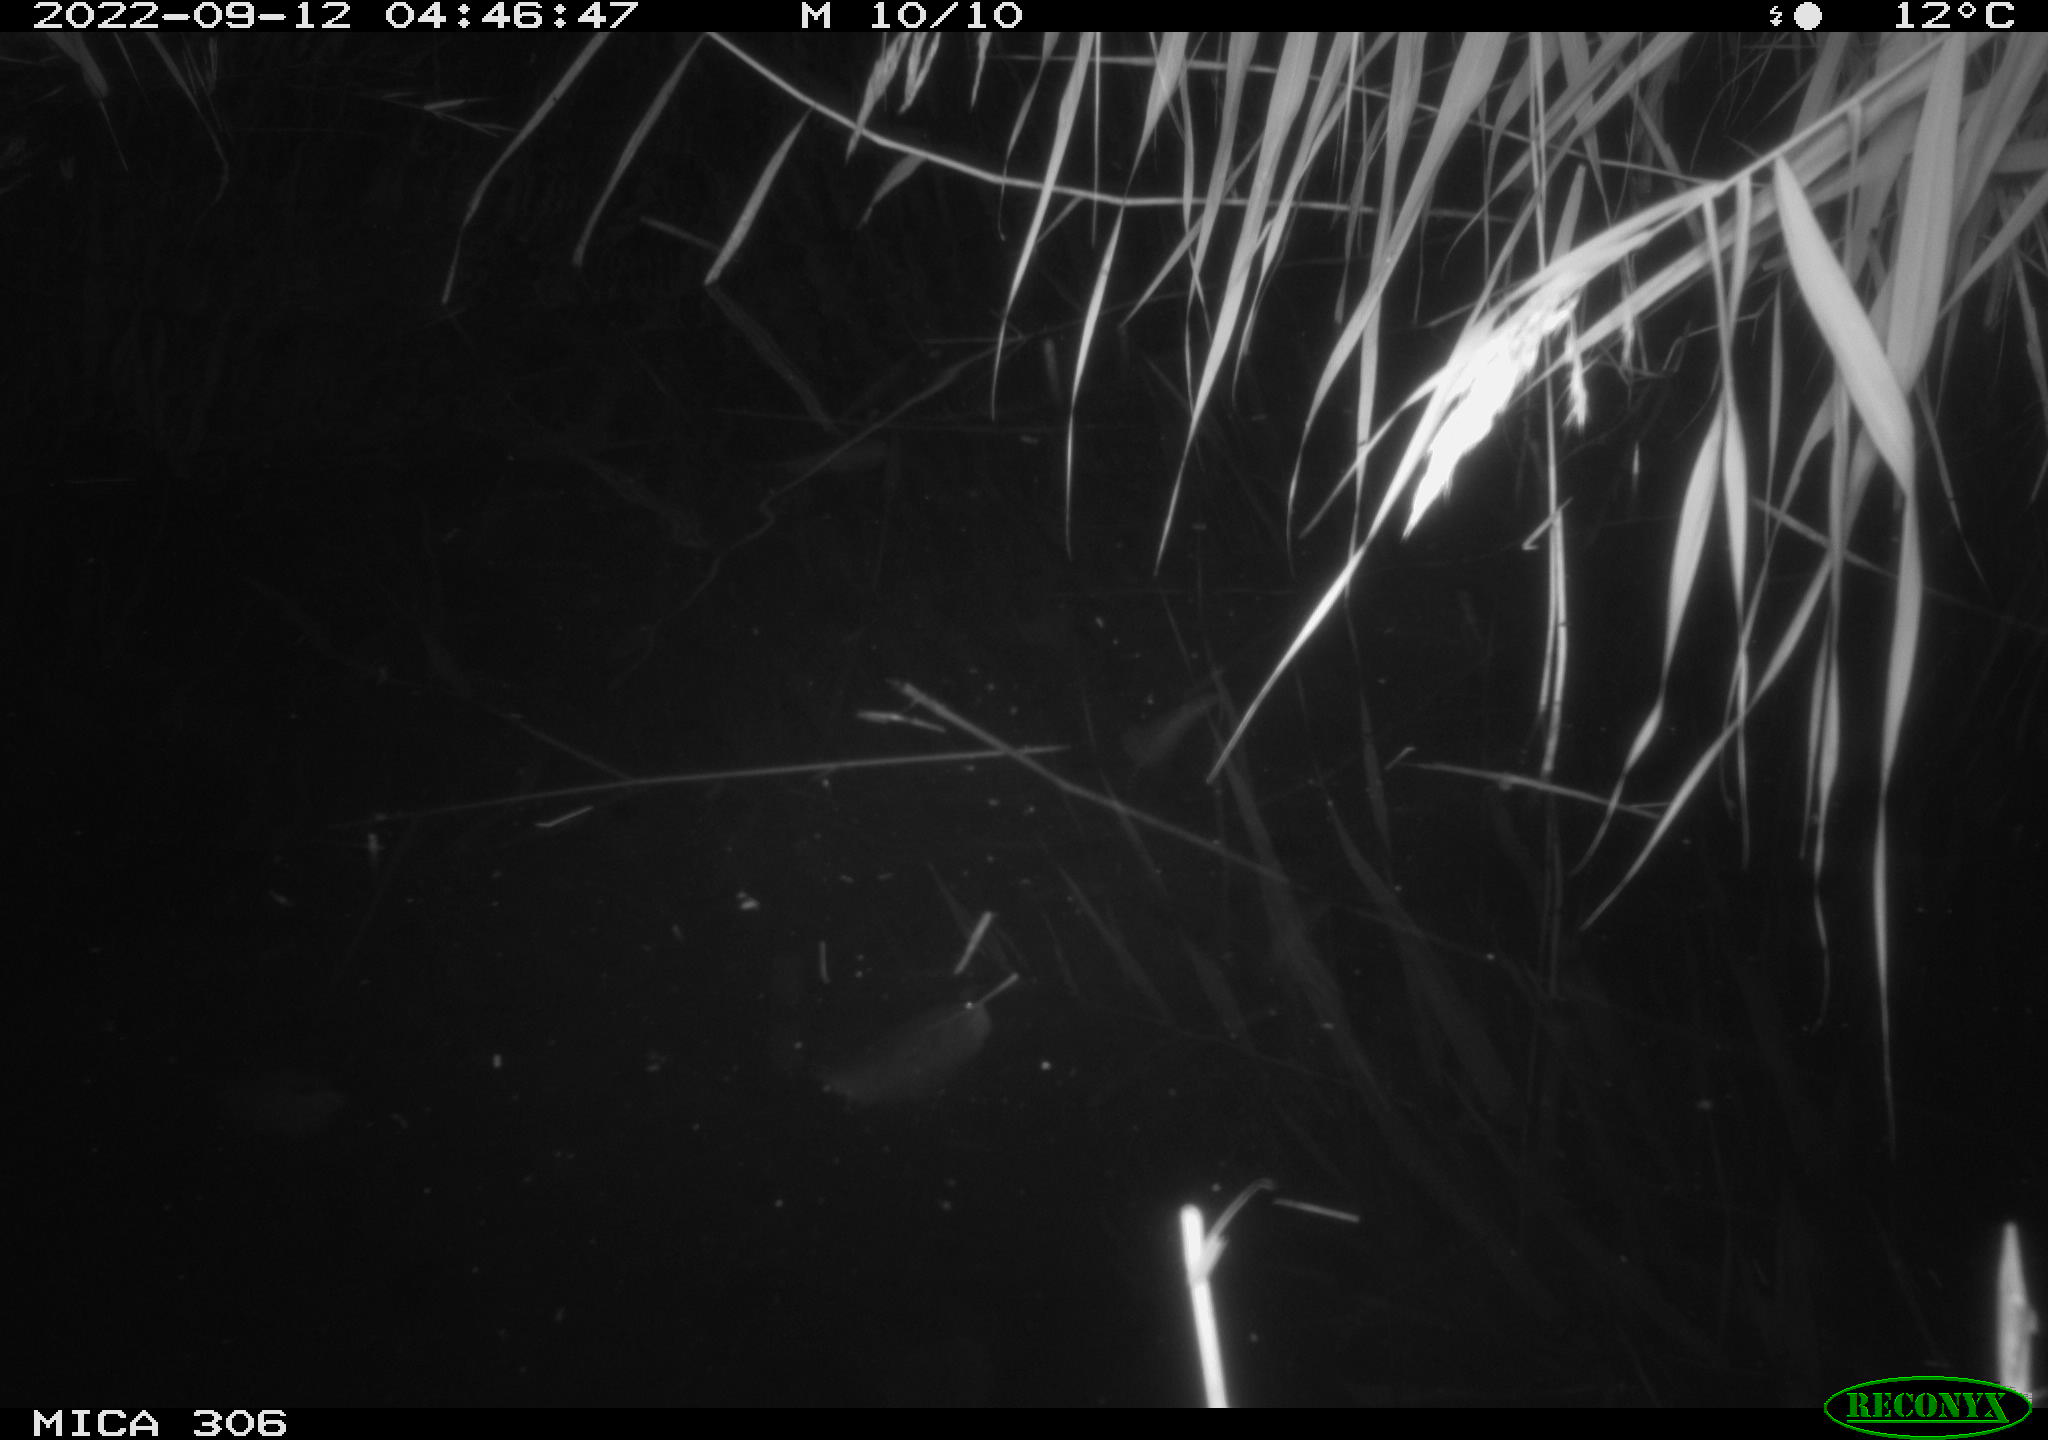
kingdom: Animalia
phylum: Chordata
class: Mammalia
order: Rodentia
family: Muridae
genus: Rattus
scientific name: Rattus norvegicus
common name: Brown rat
